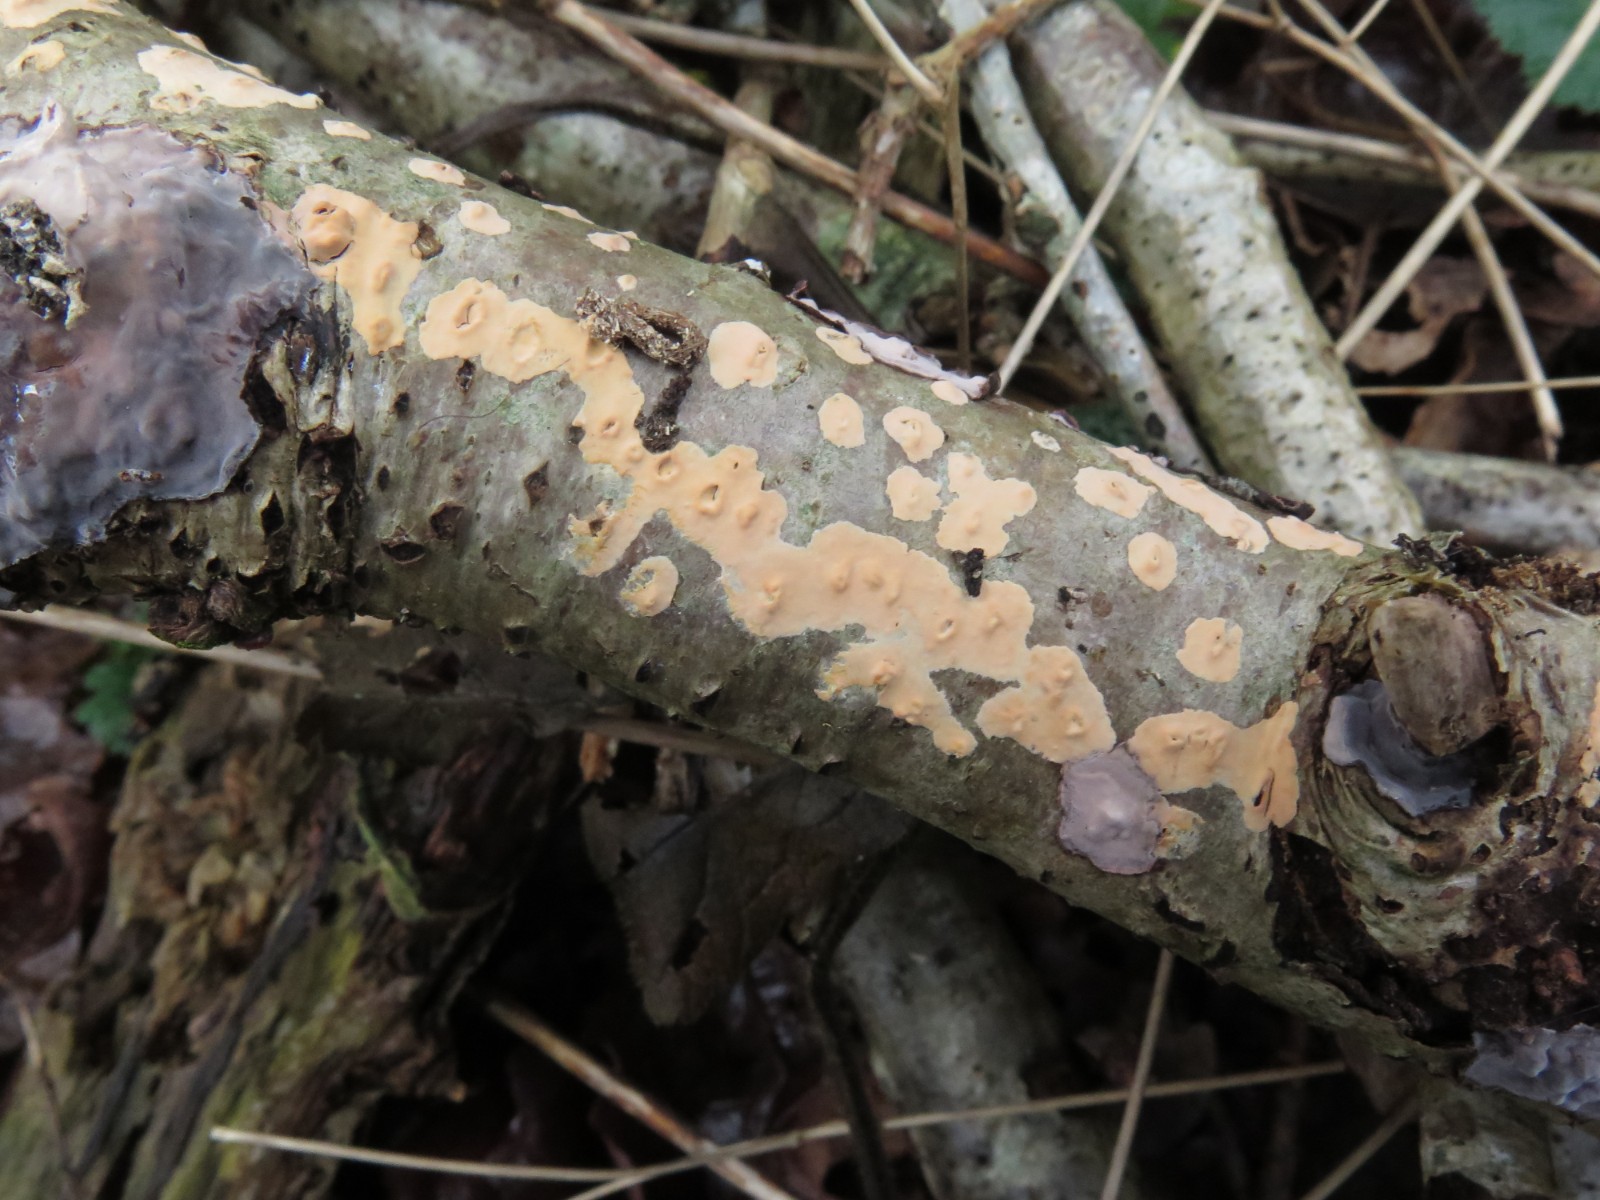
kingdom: Fungi
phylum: Basidiomycota
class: Agaricomycetes
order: Russulales
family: Peniophoraceae
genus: Peniophora
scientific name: Peniophora incarnata
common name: laksefarvet voksskind
